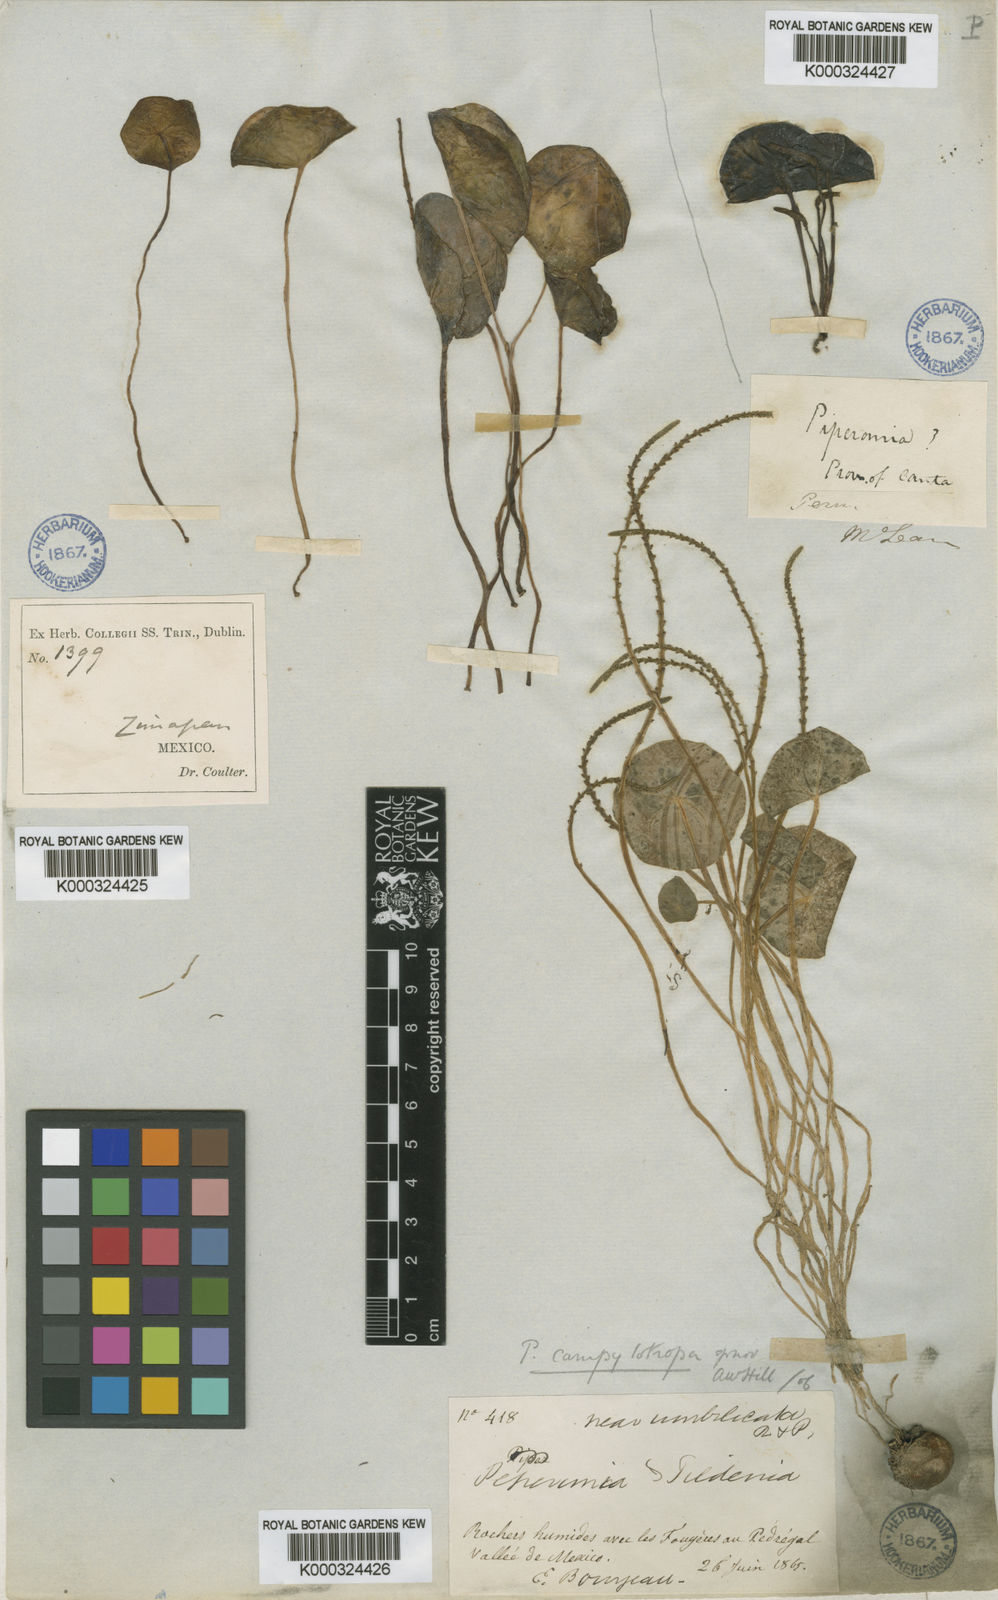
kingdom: Plantae
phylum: Tracheophyta
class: Magnoliopsida
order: Piperales
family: Piperaceae
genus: Peperomia
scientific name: Peperomia campylotropa
